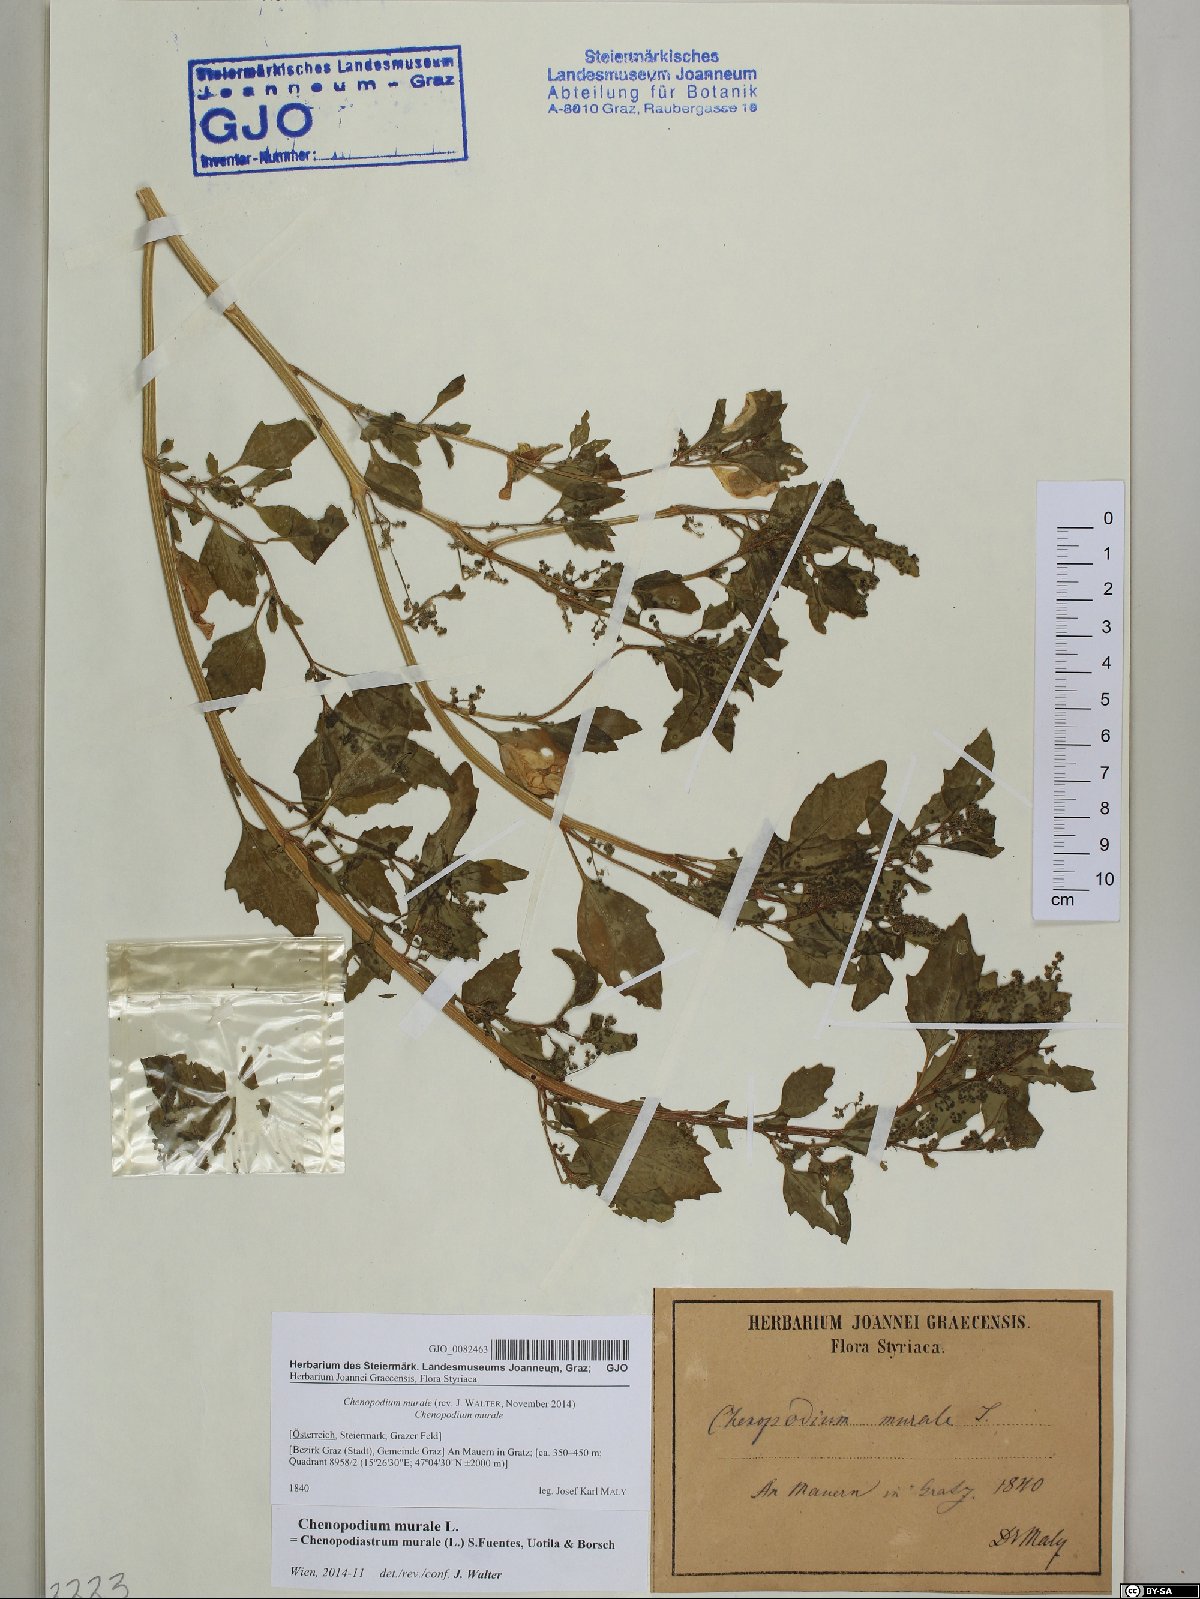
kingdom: Plantae
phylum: Tracheophyta
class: Magnoliopsida
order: Caryophyllales
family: Amaranthaceae
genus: Chenopodiastrum
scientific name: Chenopodiastrum murale
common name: Sowbane
